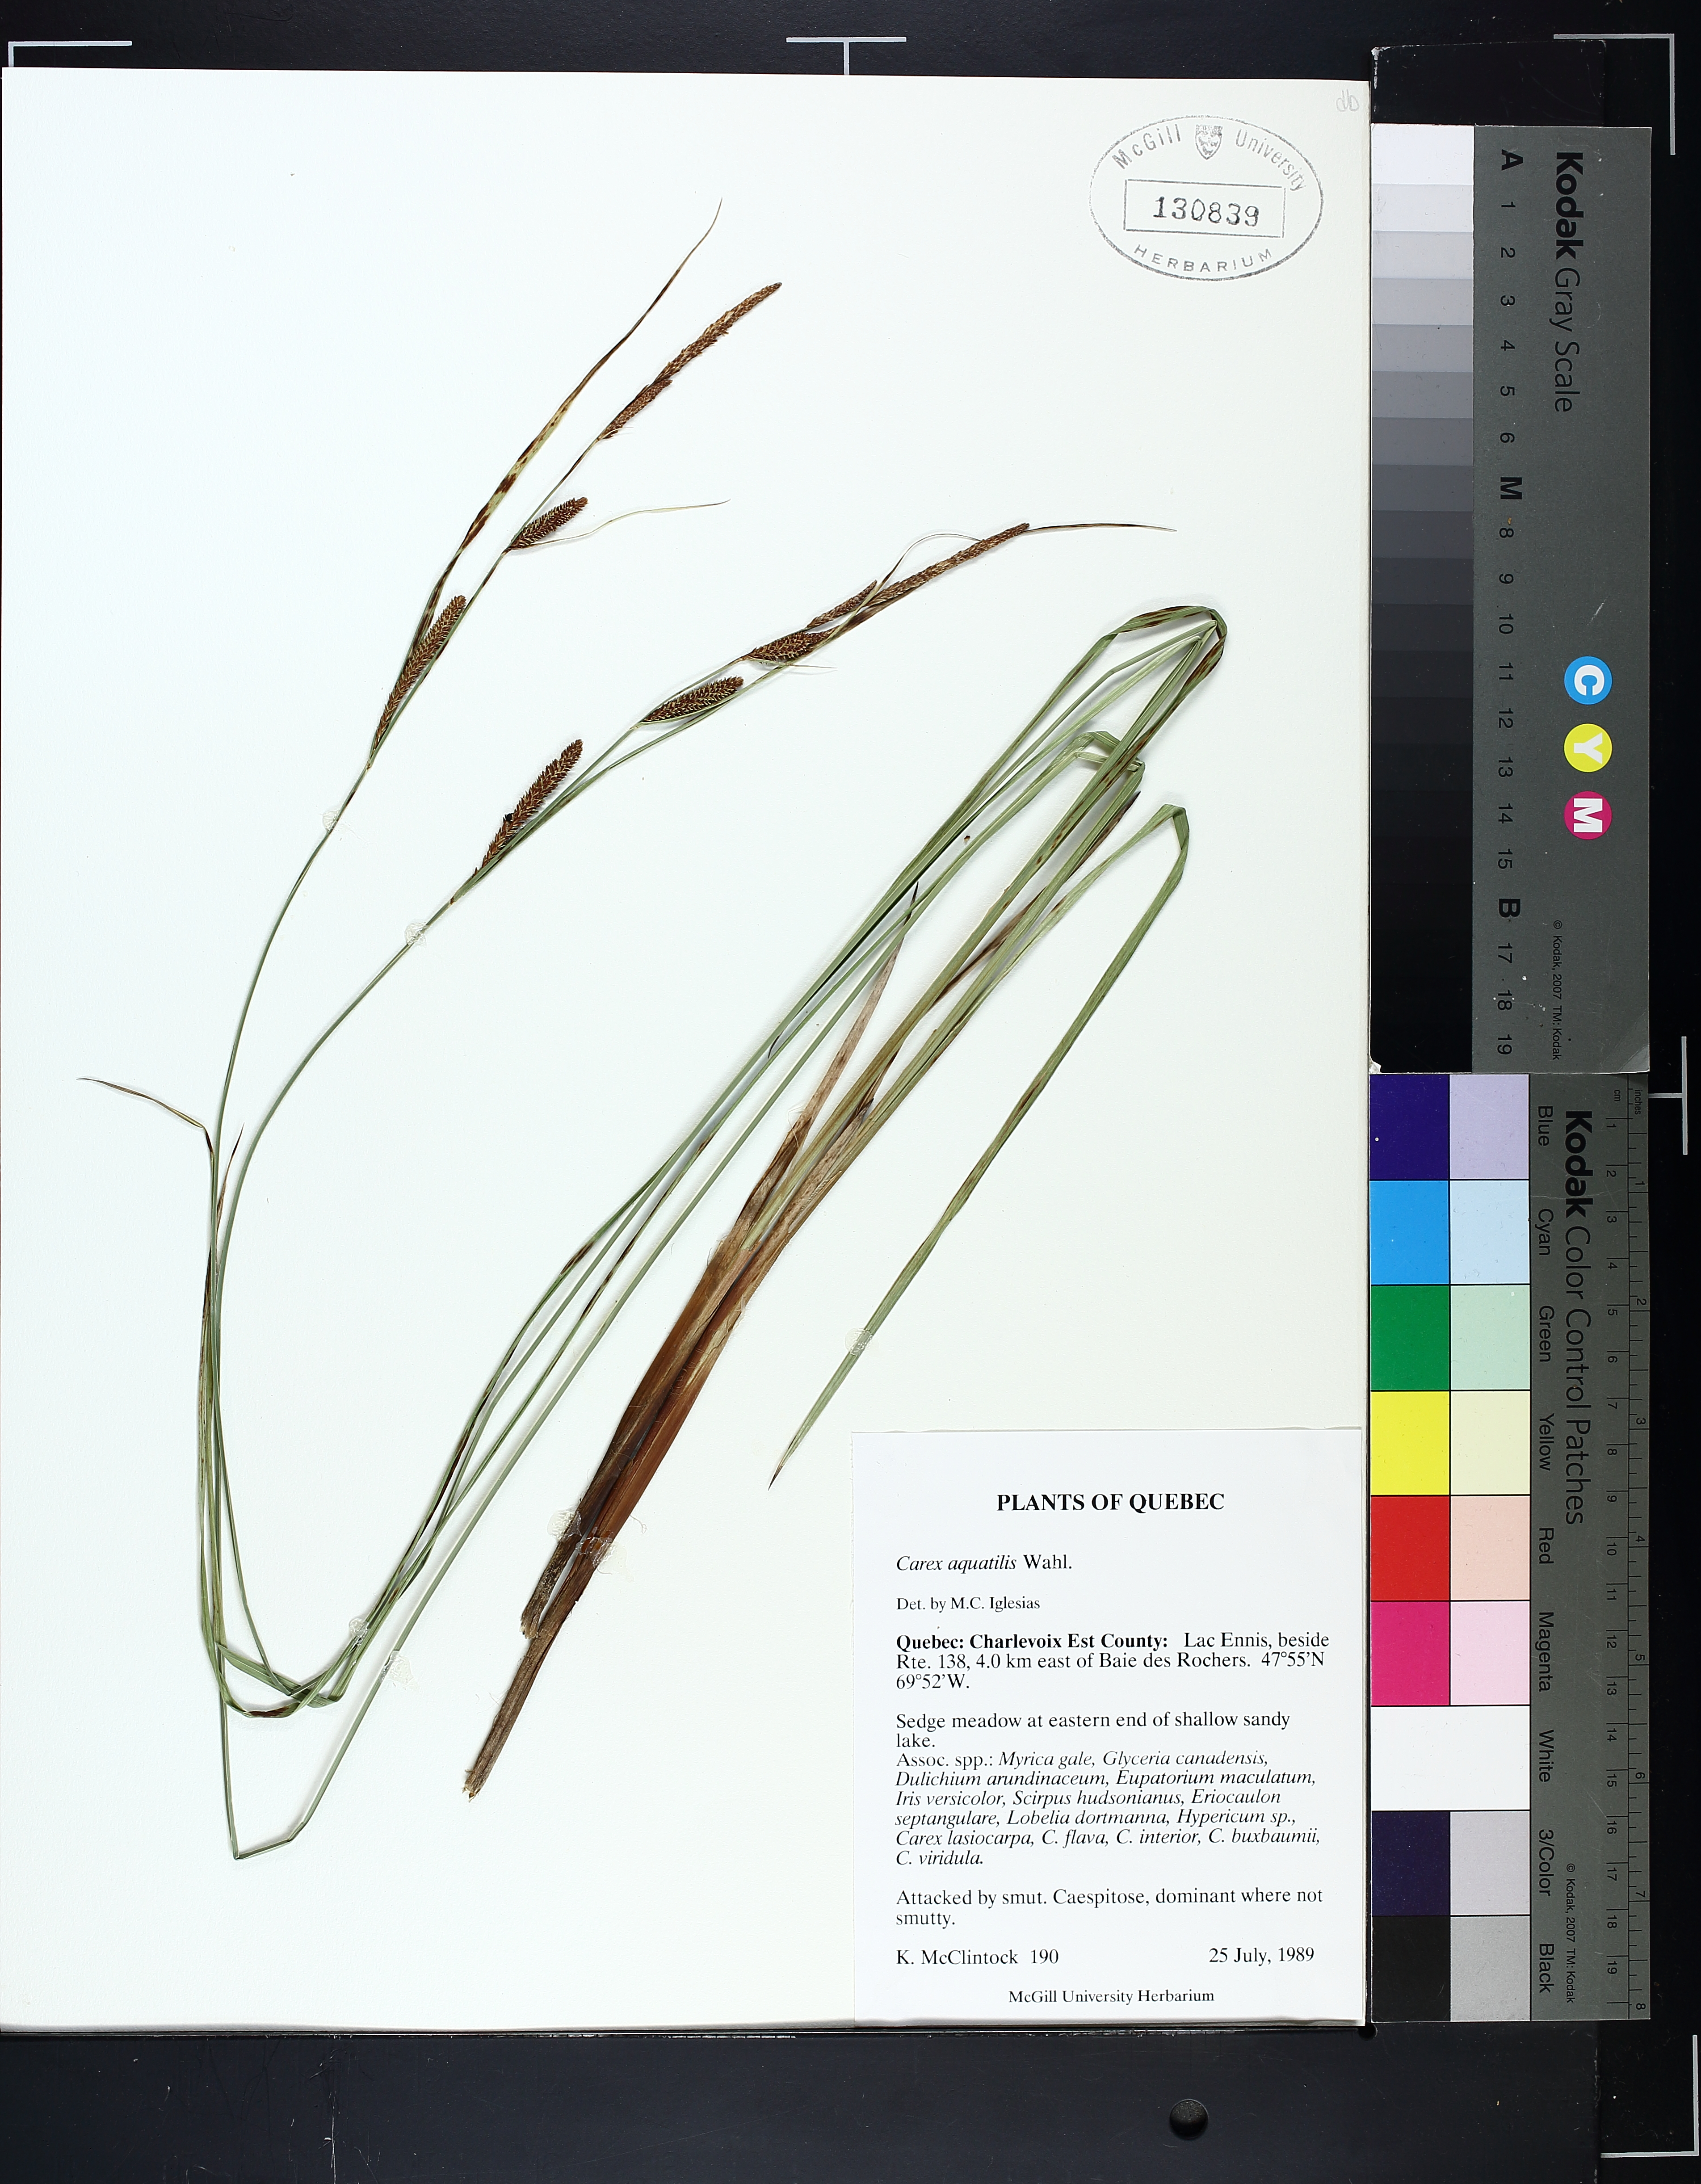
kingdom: Plantae
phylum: Tracheophyta
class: Liliopsida
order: Poales
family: Cyperaceae
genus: Carex
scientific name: Carex aquatilis
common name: Water sedge
